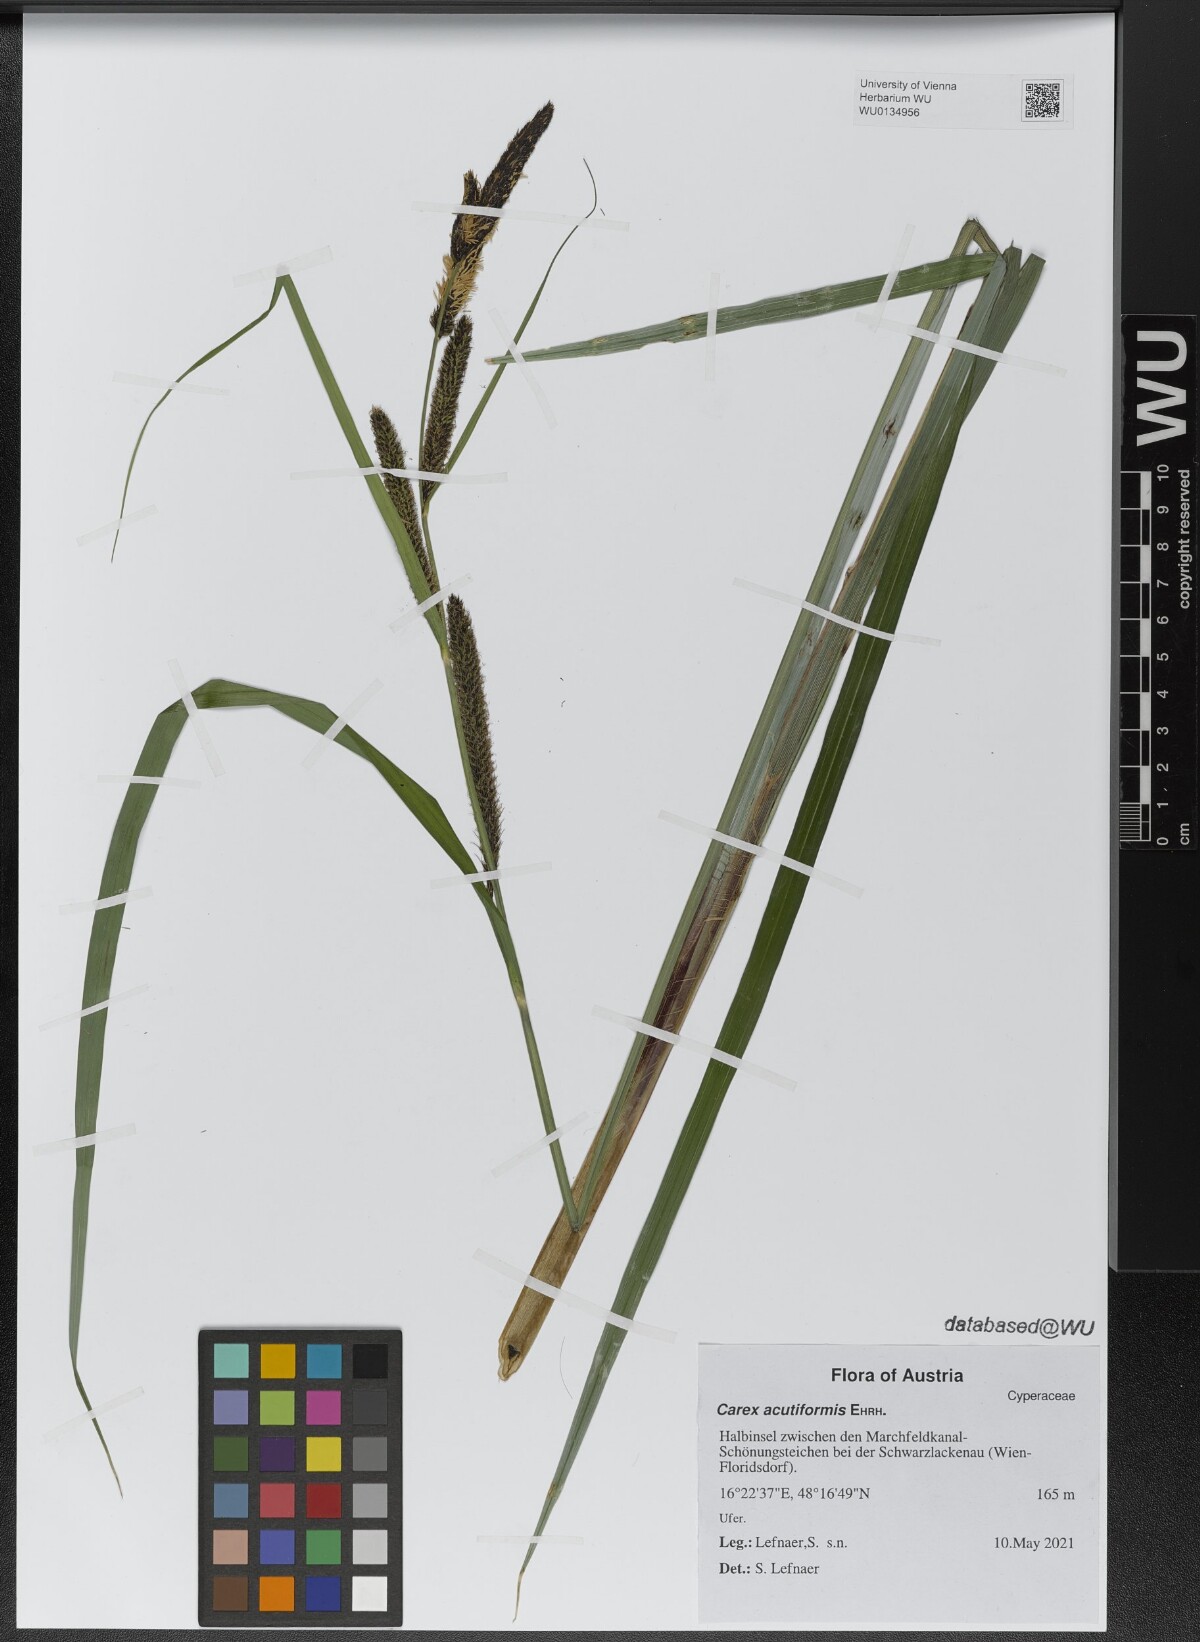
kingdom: Plantae
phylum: Tracheophyta
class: Liliopsida
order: Poales
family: Cyperaceae
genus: Carex
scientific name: Carex acutiformis
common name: Lesser pond-sedge
